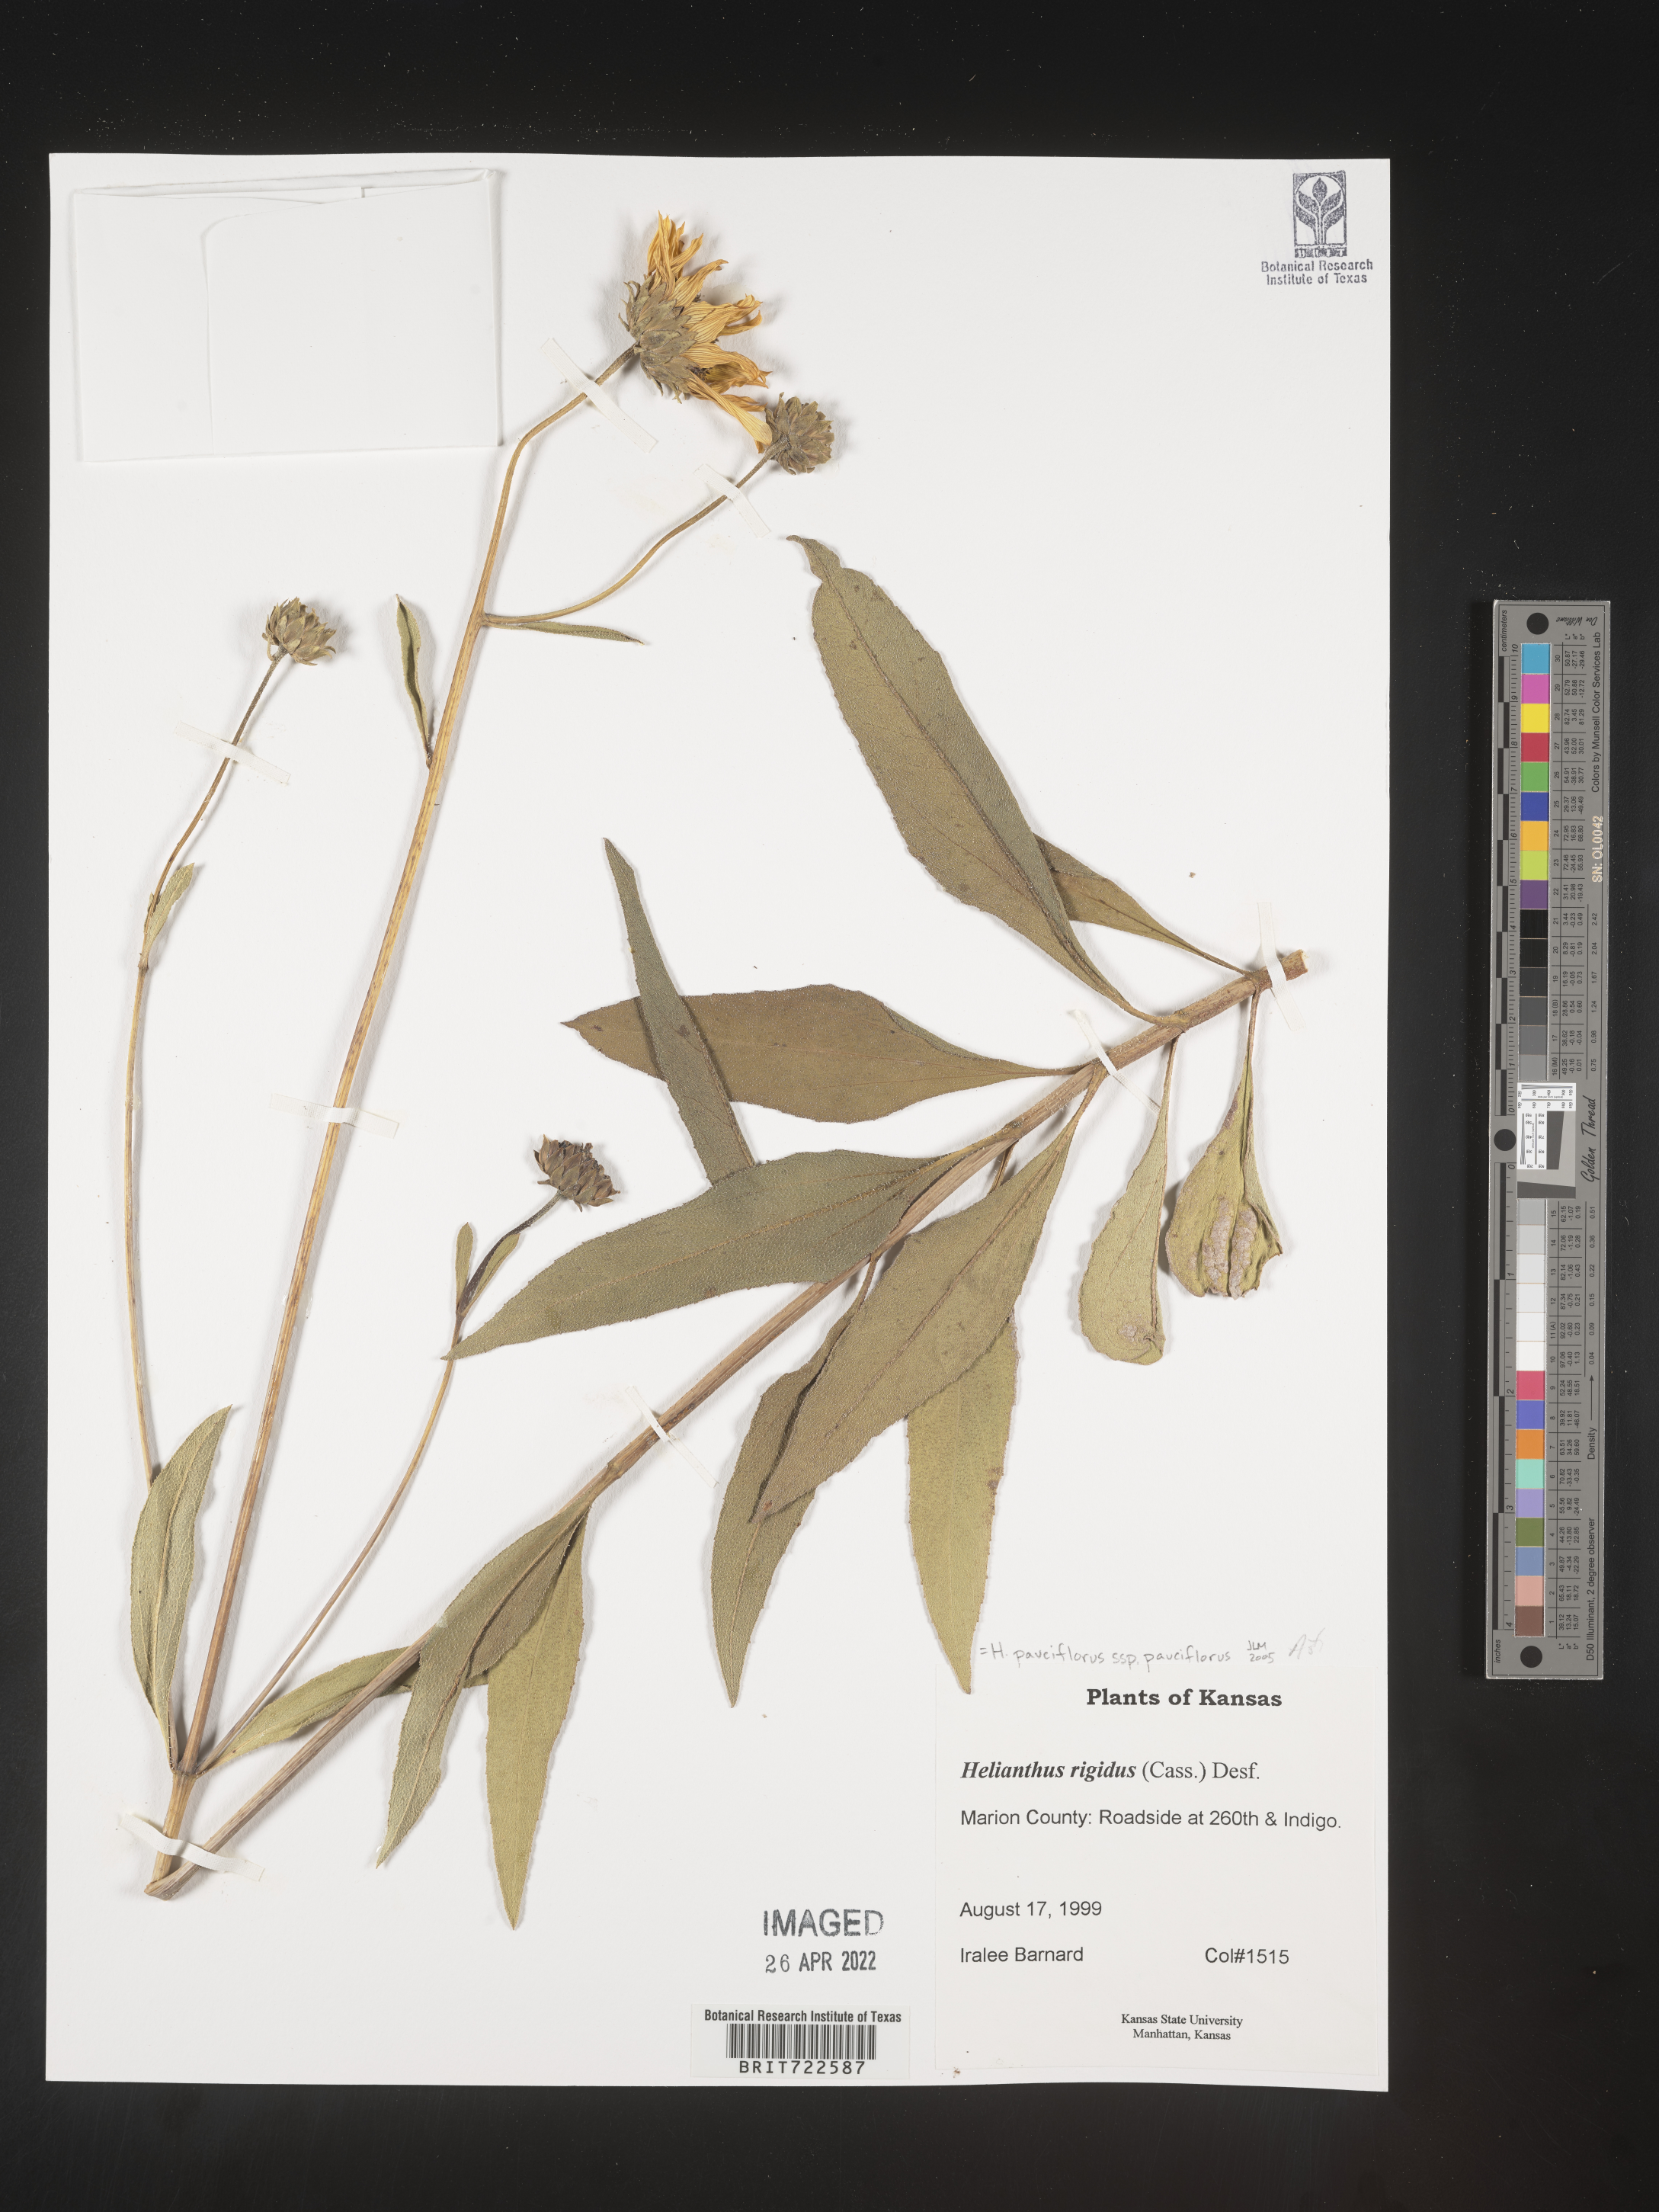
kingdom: Plantae
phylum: Tracheophyta
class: Magnoliopsida
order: Asterales
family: Asteraceae
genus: Helianthus
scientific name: Helianthus pauciflorus
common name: Stiff sunflower
